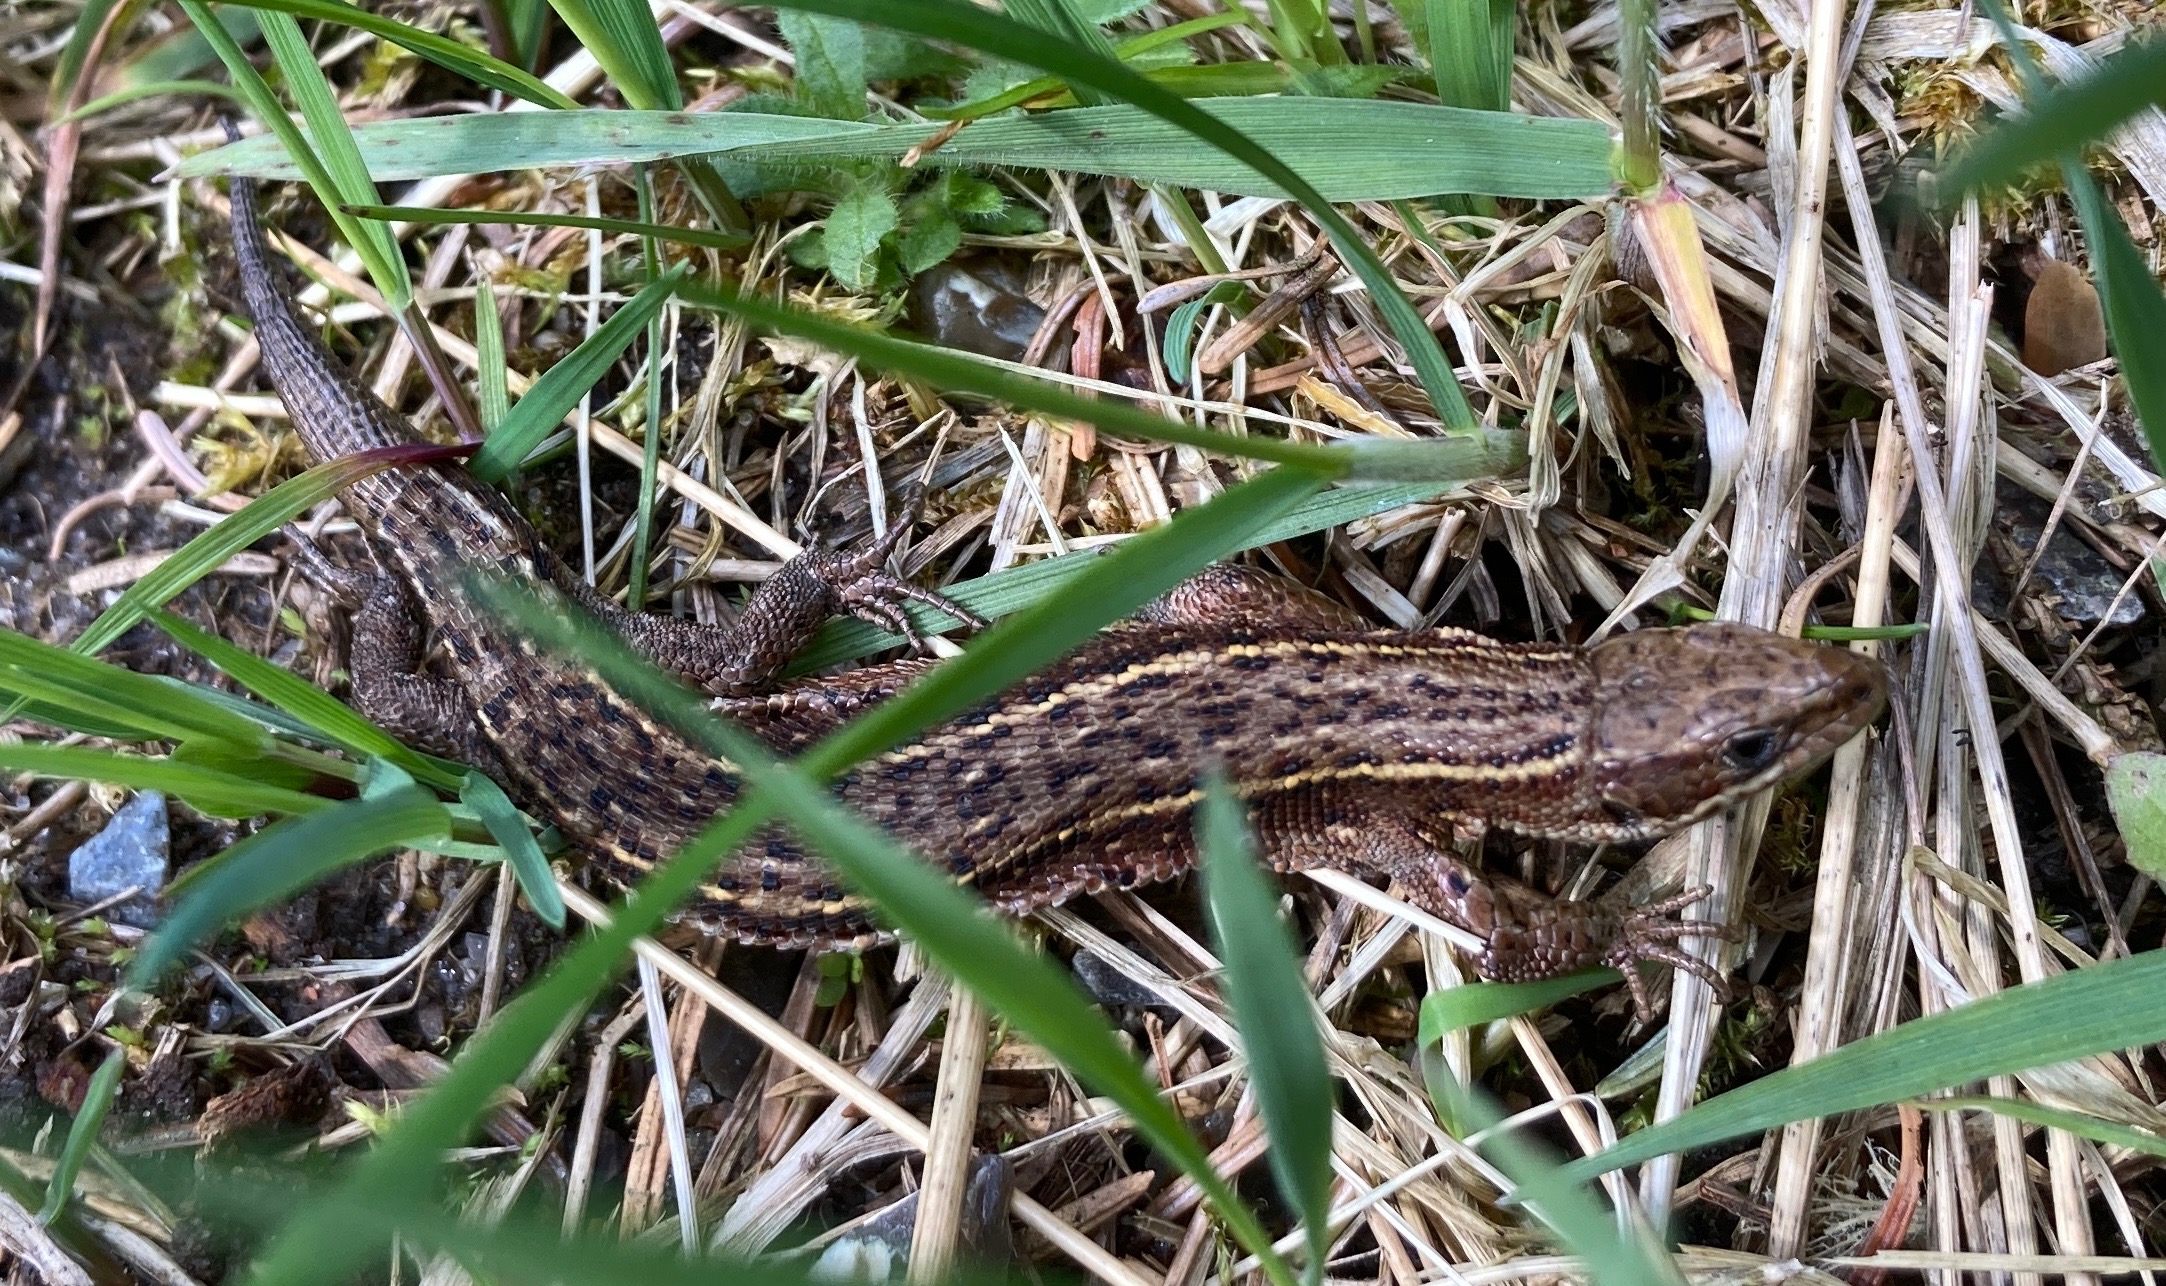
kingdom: Animalia
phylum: Chordata
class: Squamata
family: Lacertidae
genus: Zootoca
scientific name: Zootoca vivipara
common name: Skovfirben
